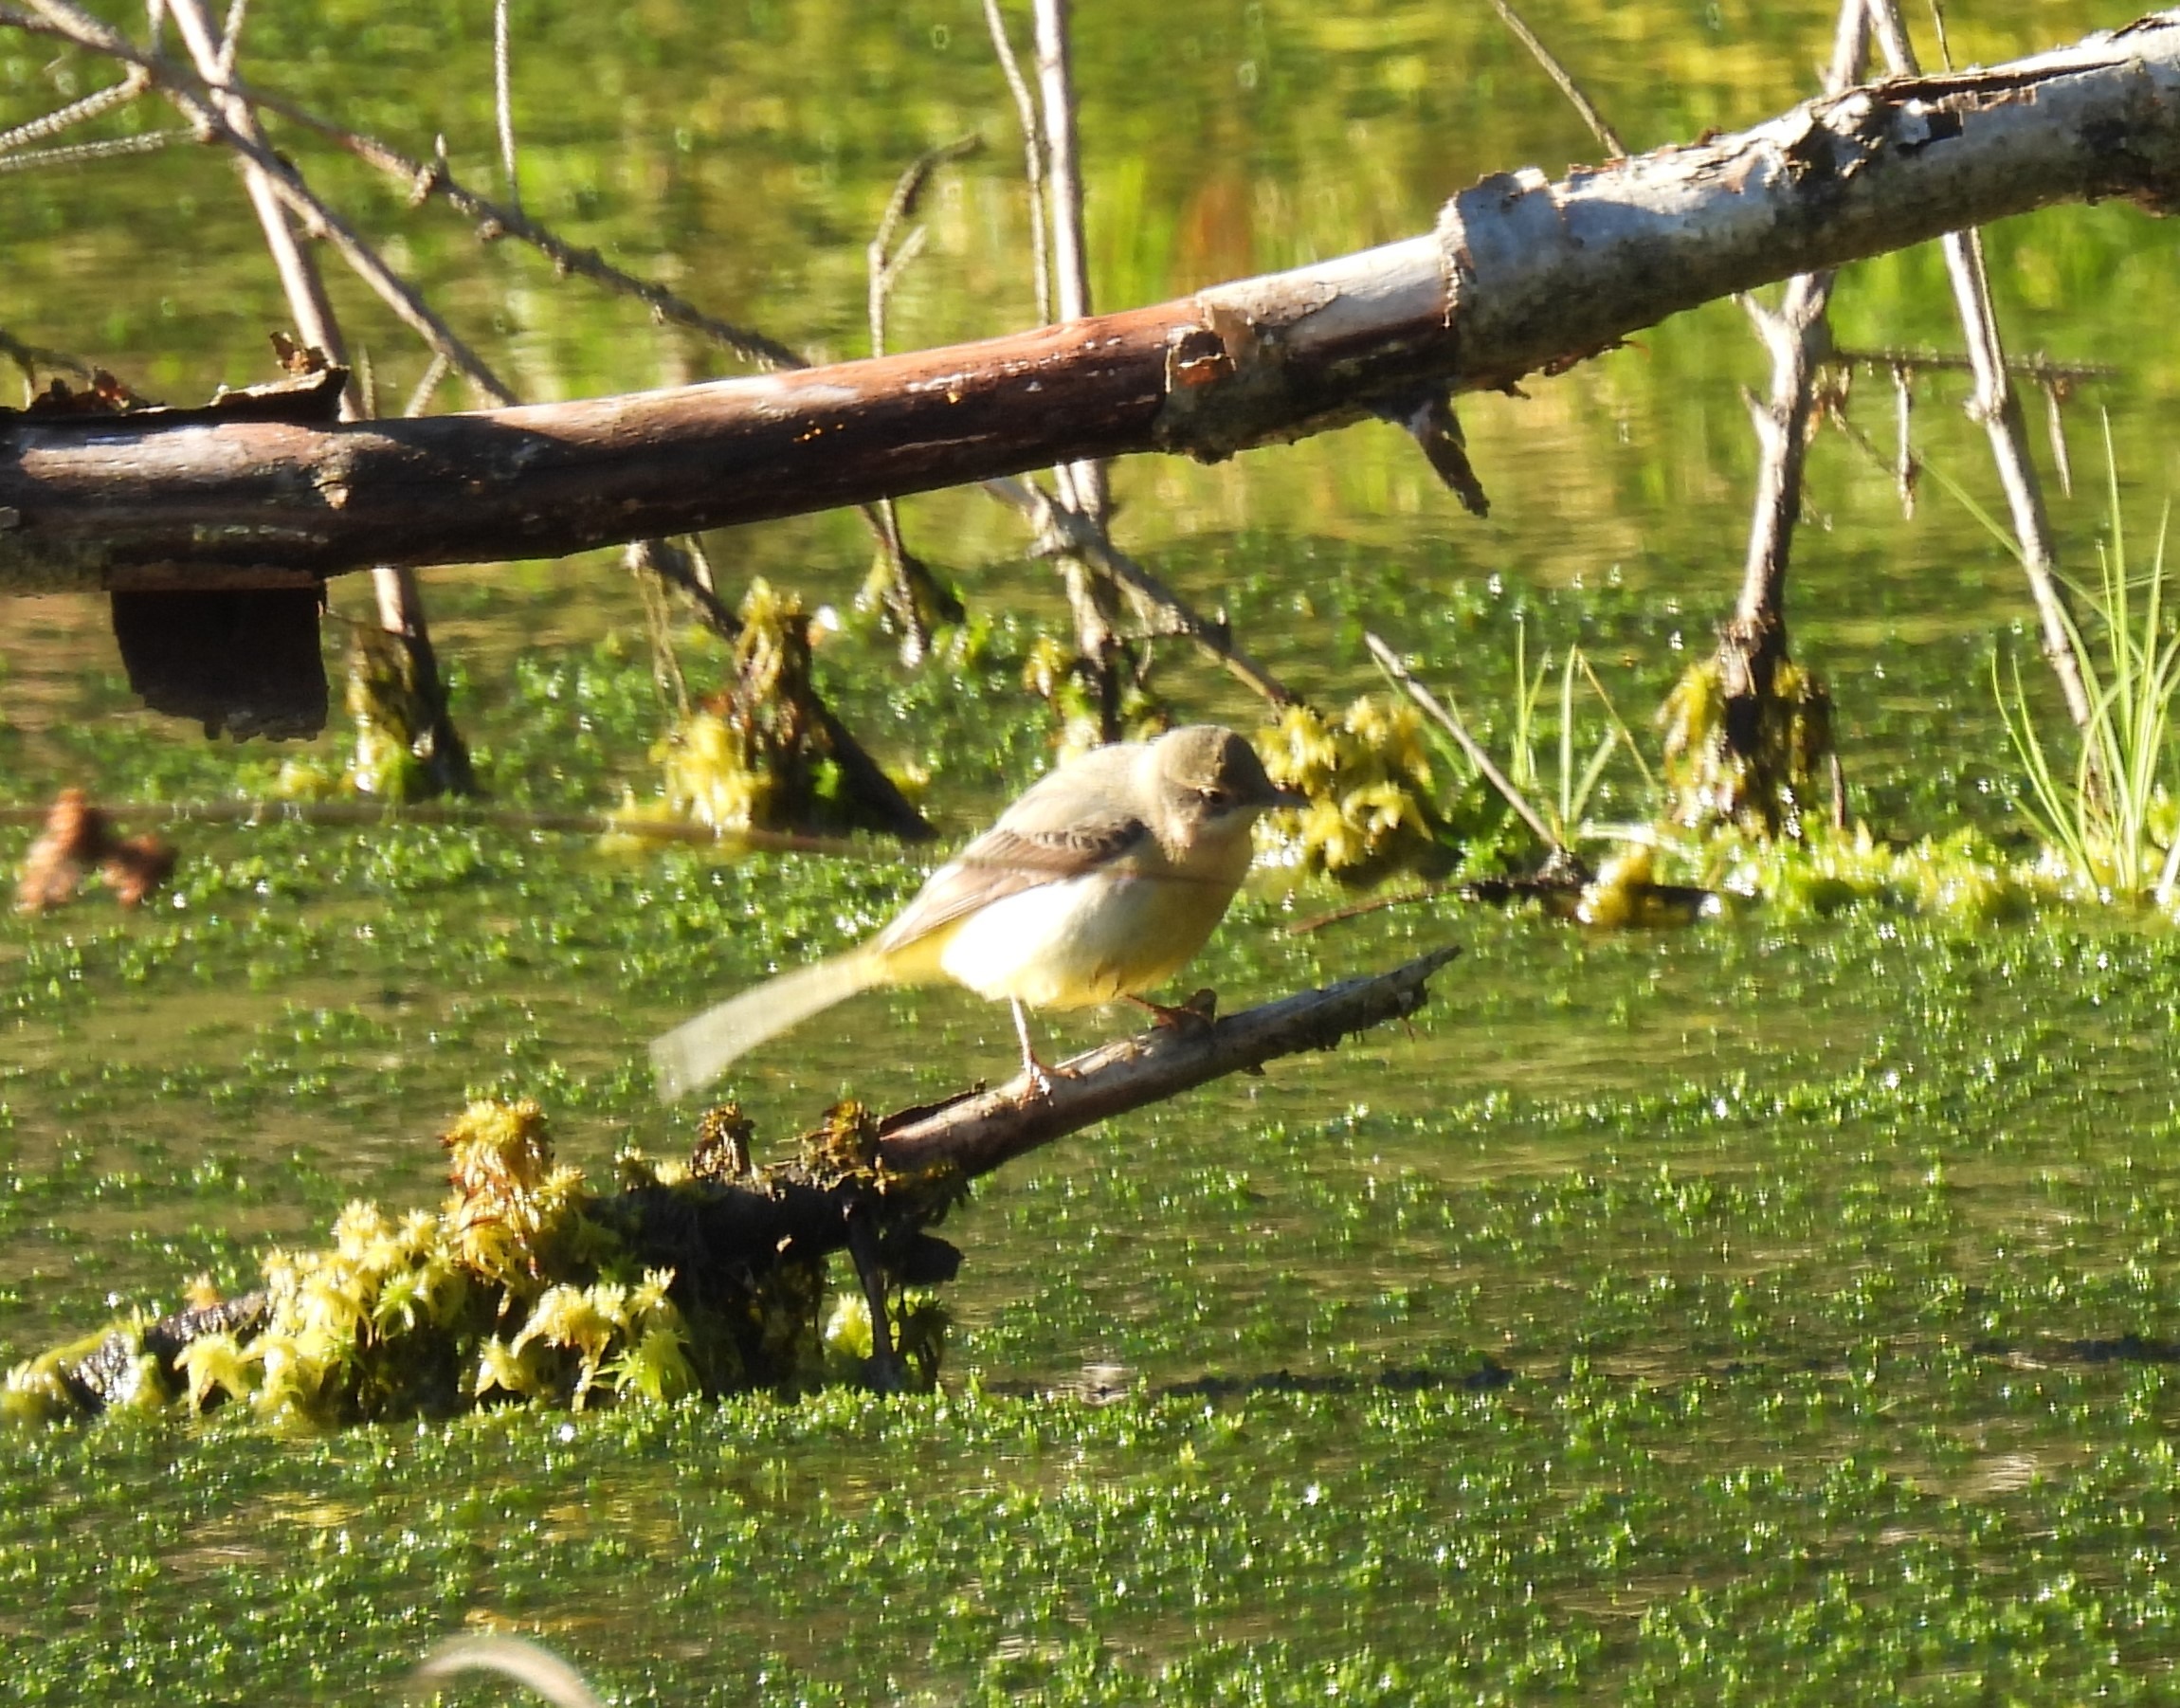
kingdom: Animalia
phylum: Chordata
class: Aves
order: Passeriformes
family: Motacillidae
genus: Motacilla
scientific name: Motacilla cinerea
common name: Bjergvipstjert
